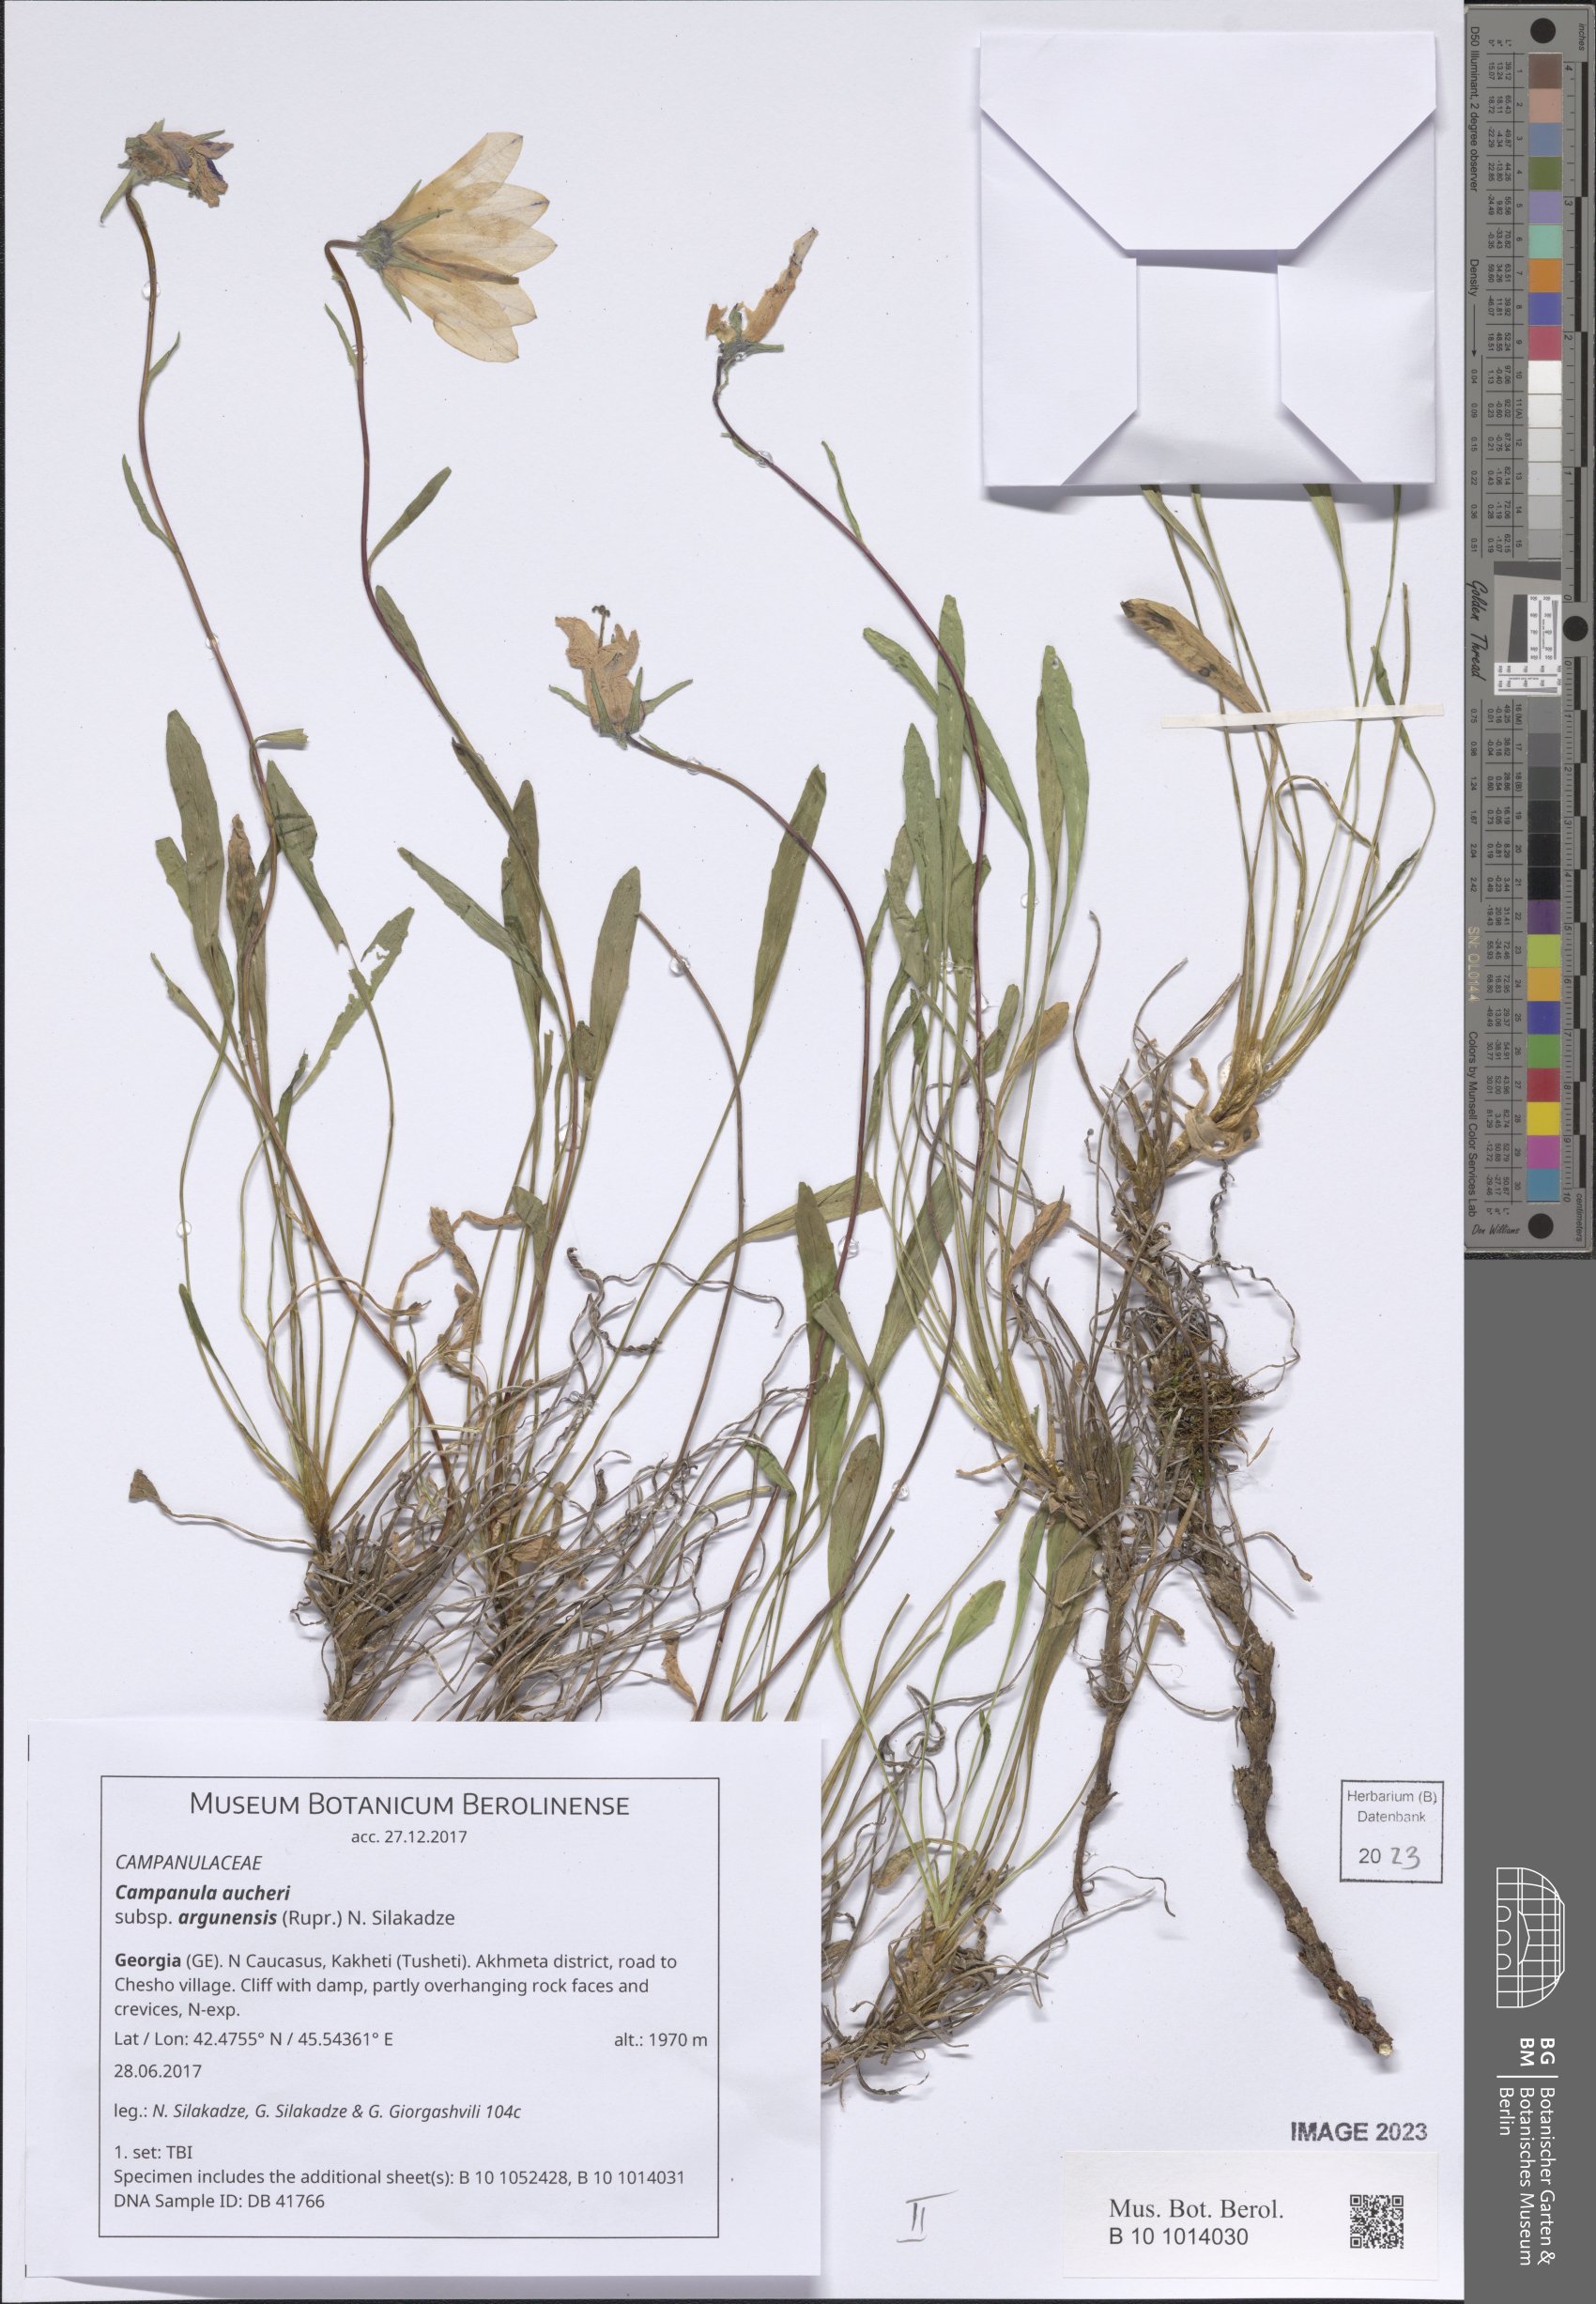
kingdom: Plantae
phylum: Tracheophyta
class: Magnoliopsida
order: Asterales
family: Campanulaceae
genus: Campanula
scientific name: Campanula saxifraga
